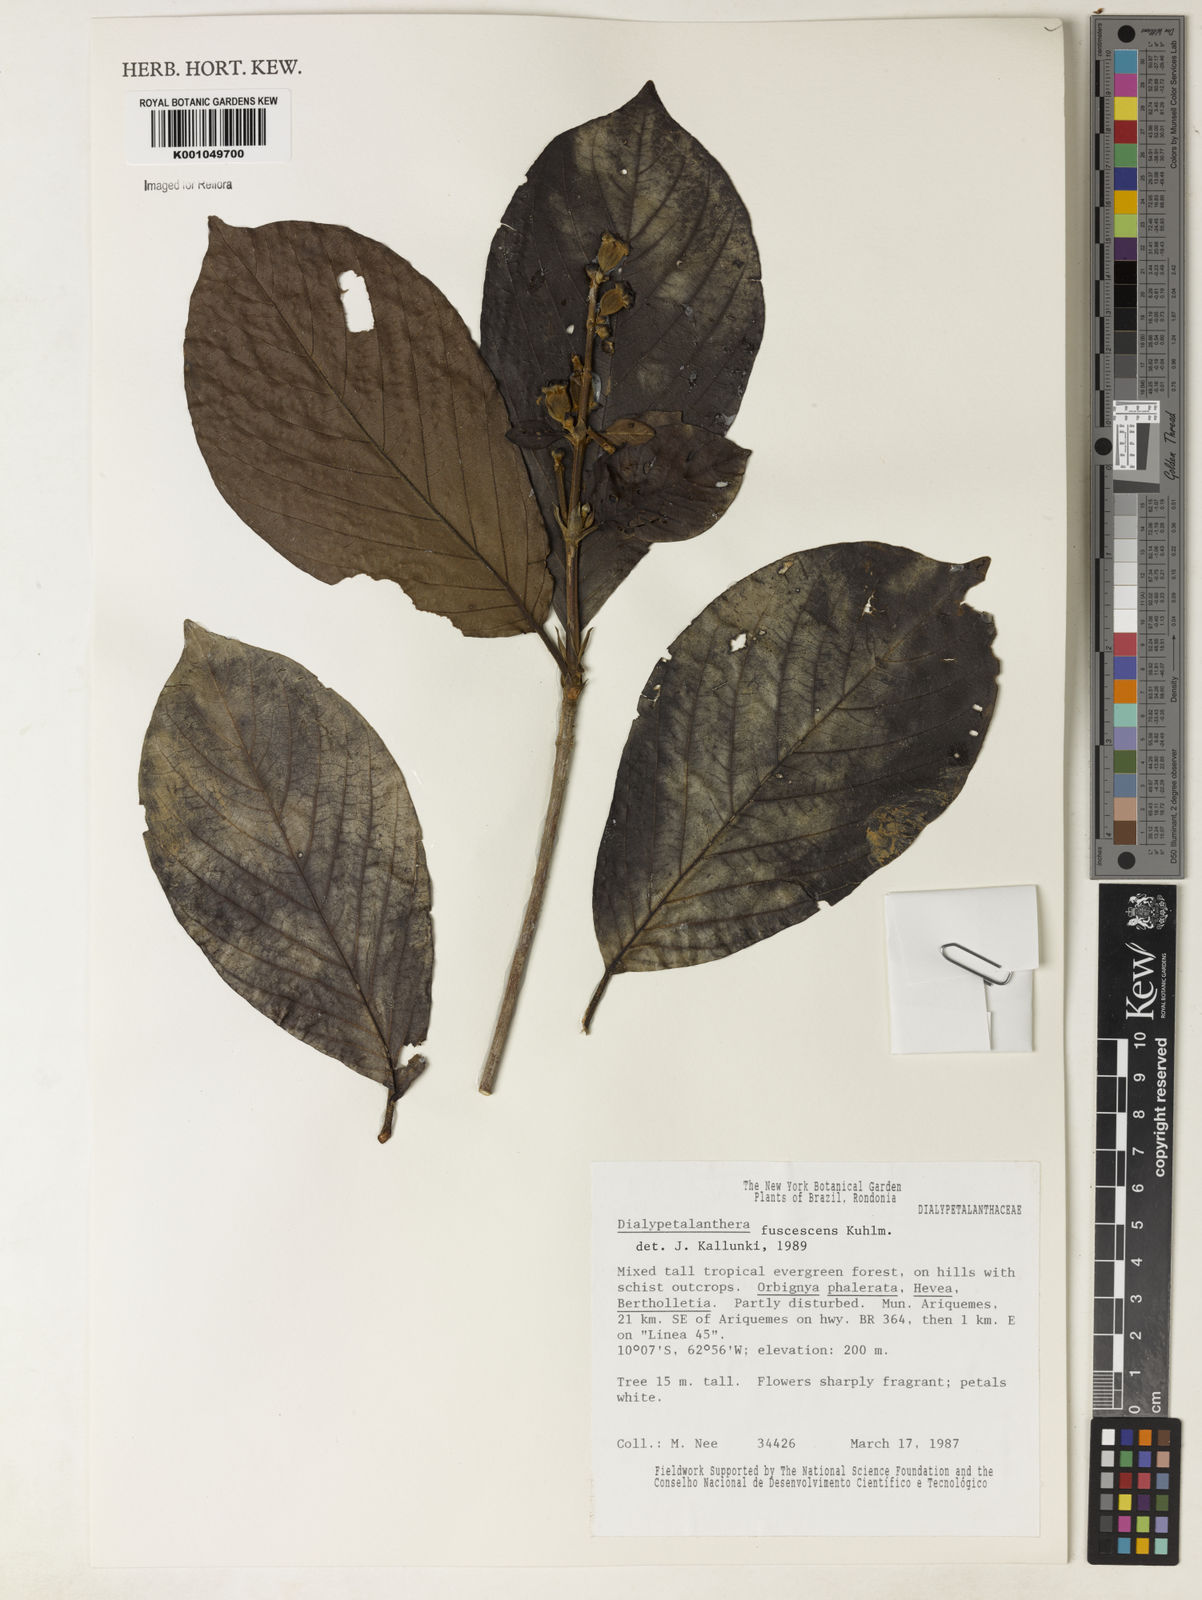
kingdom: Plantae
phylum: Tracheophyta
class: Magnoliopsida
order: Gentianales
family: Rubiaceae
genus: Dialypetalanthus
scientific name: Dialypetalanthus fuscescens
